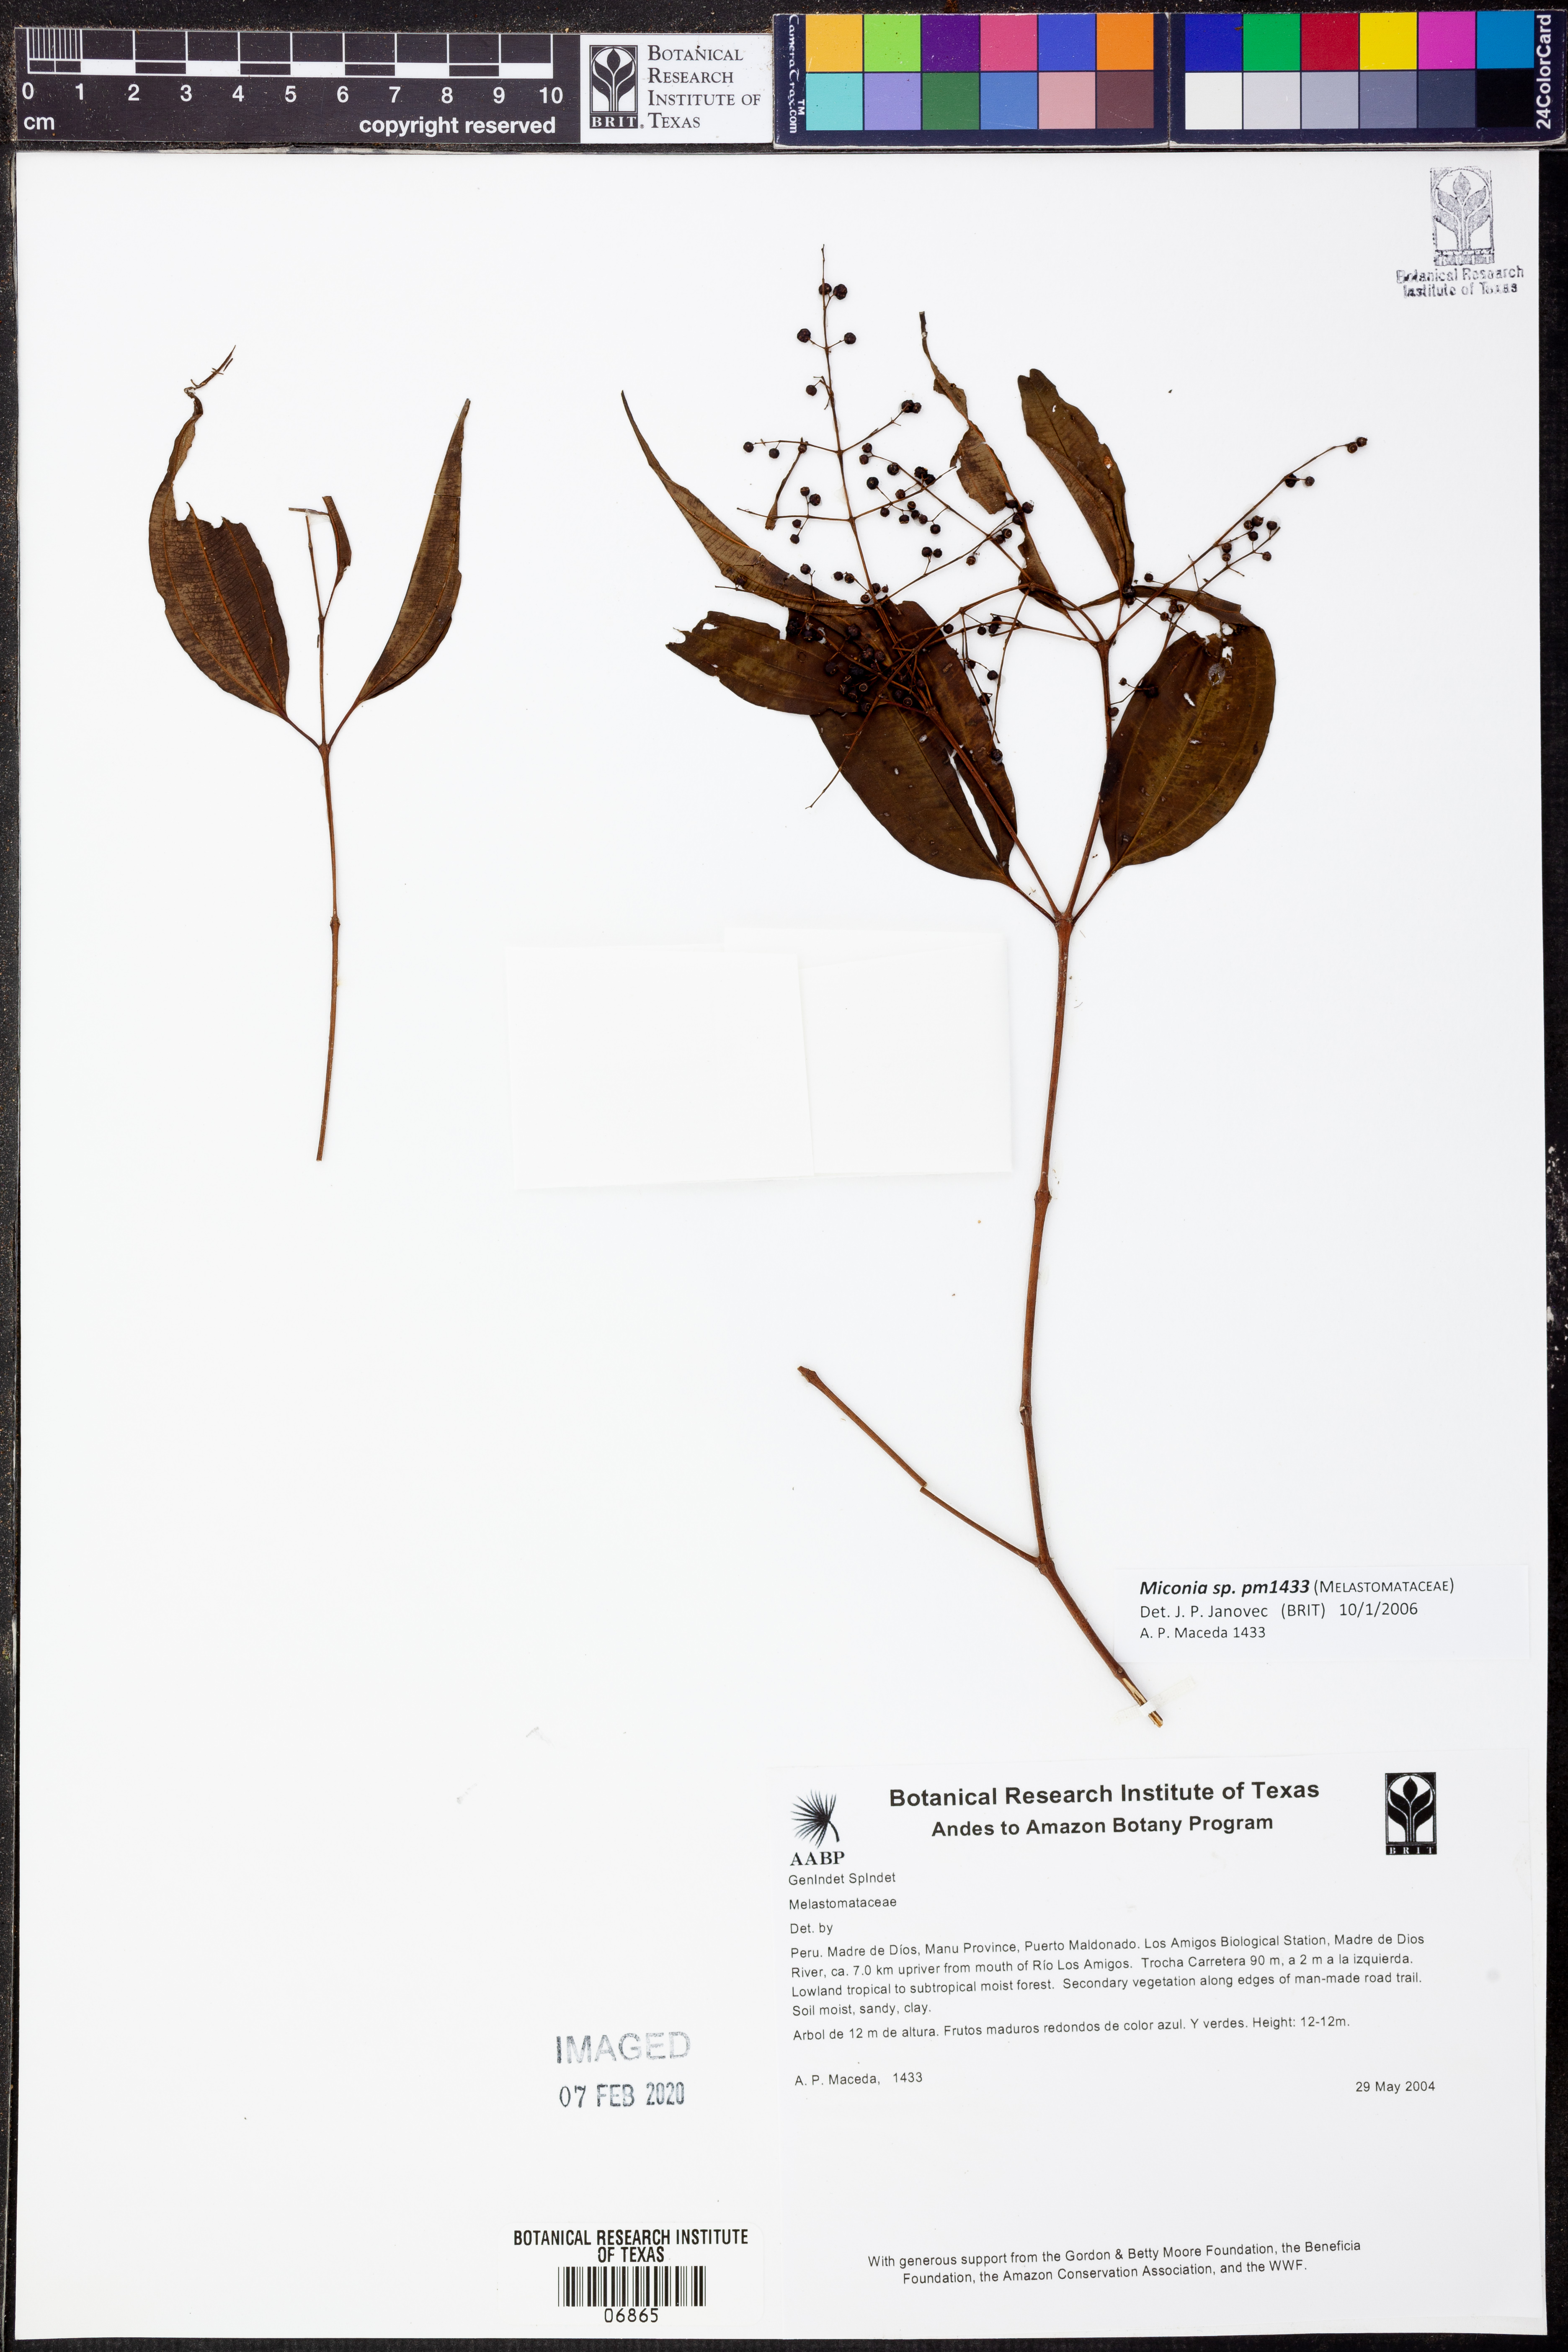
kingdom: Plantae
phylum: Tracheophyta
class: Magnoliopsida
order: Myrtales
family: Melastomataceae
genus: Miconia
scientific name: Miconia
